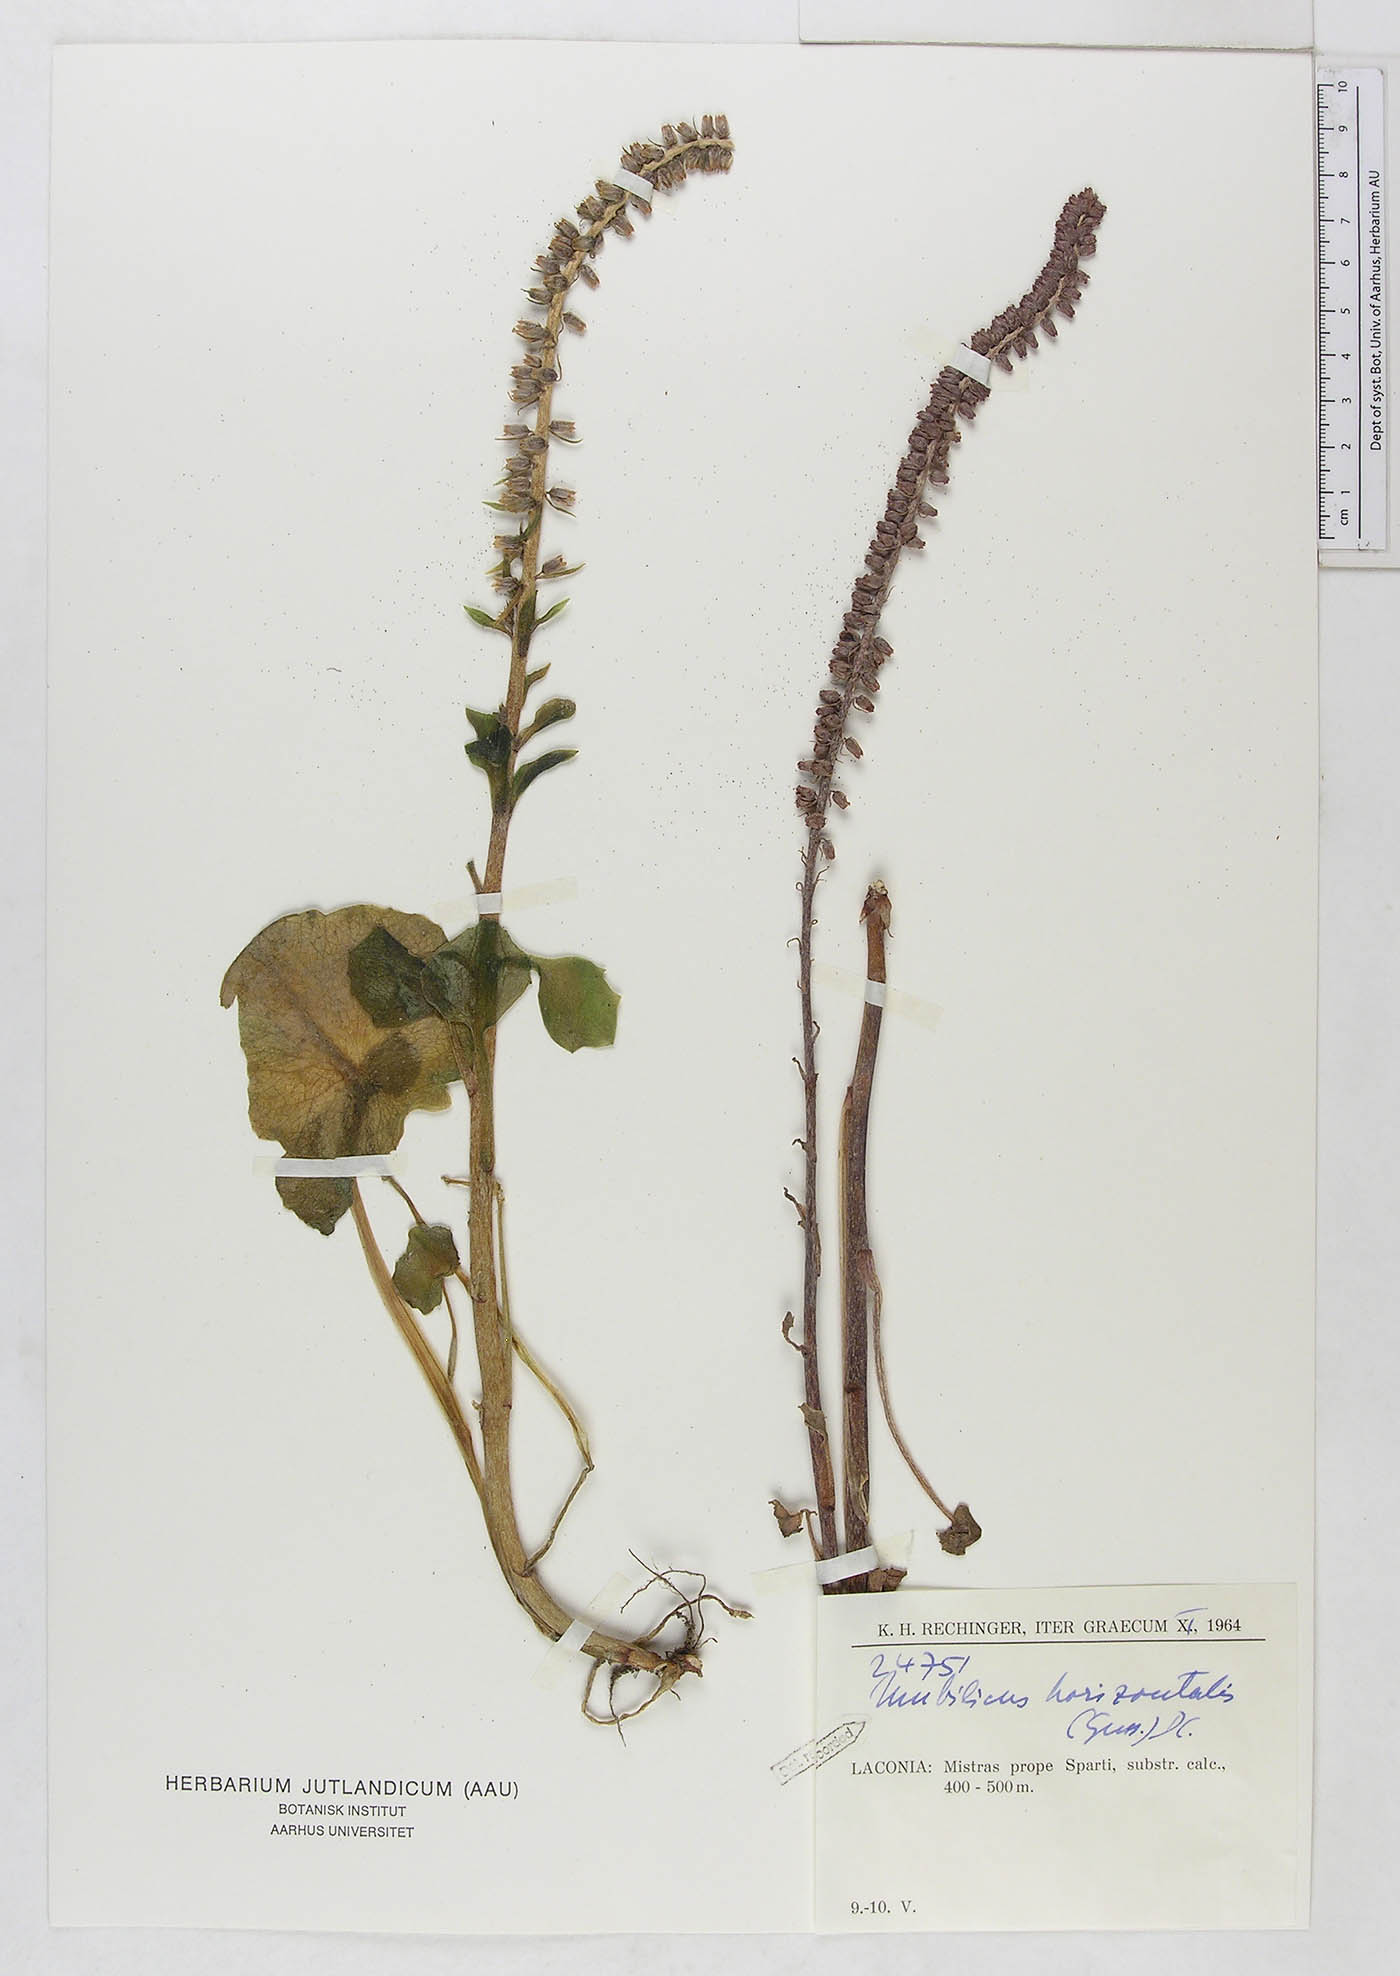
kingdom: Plantae
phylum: Tracheophyta
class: Magnoliopsida
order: Saxifragales
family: Crassulaceae
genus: Umbilicus
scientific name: Umbilicus horizontalis
